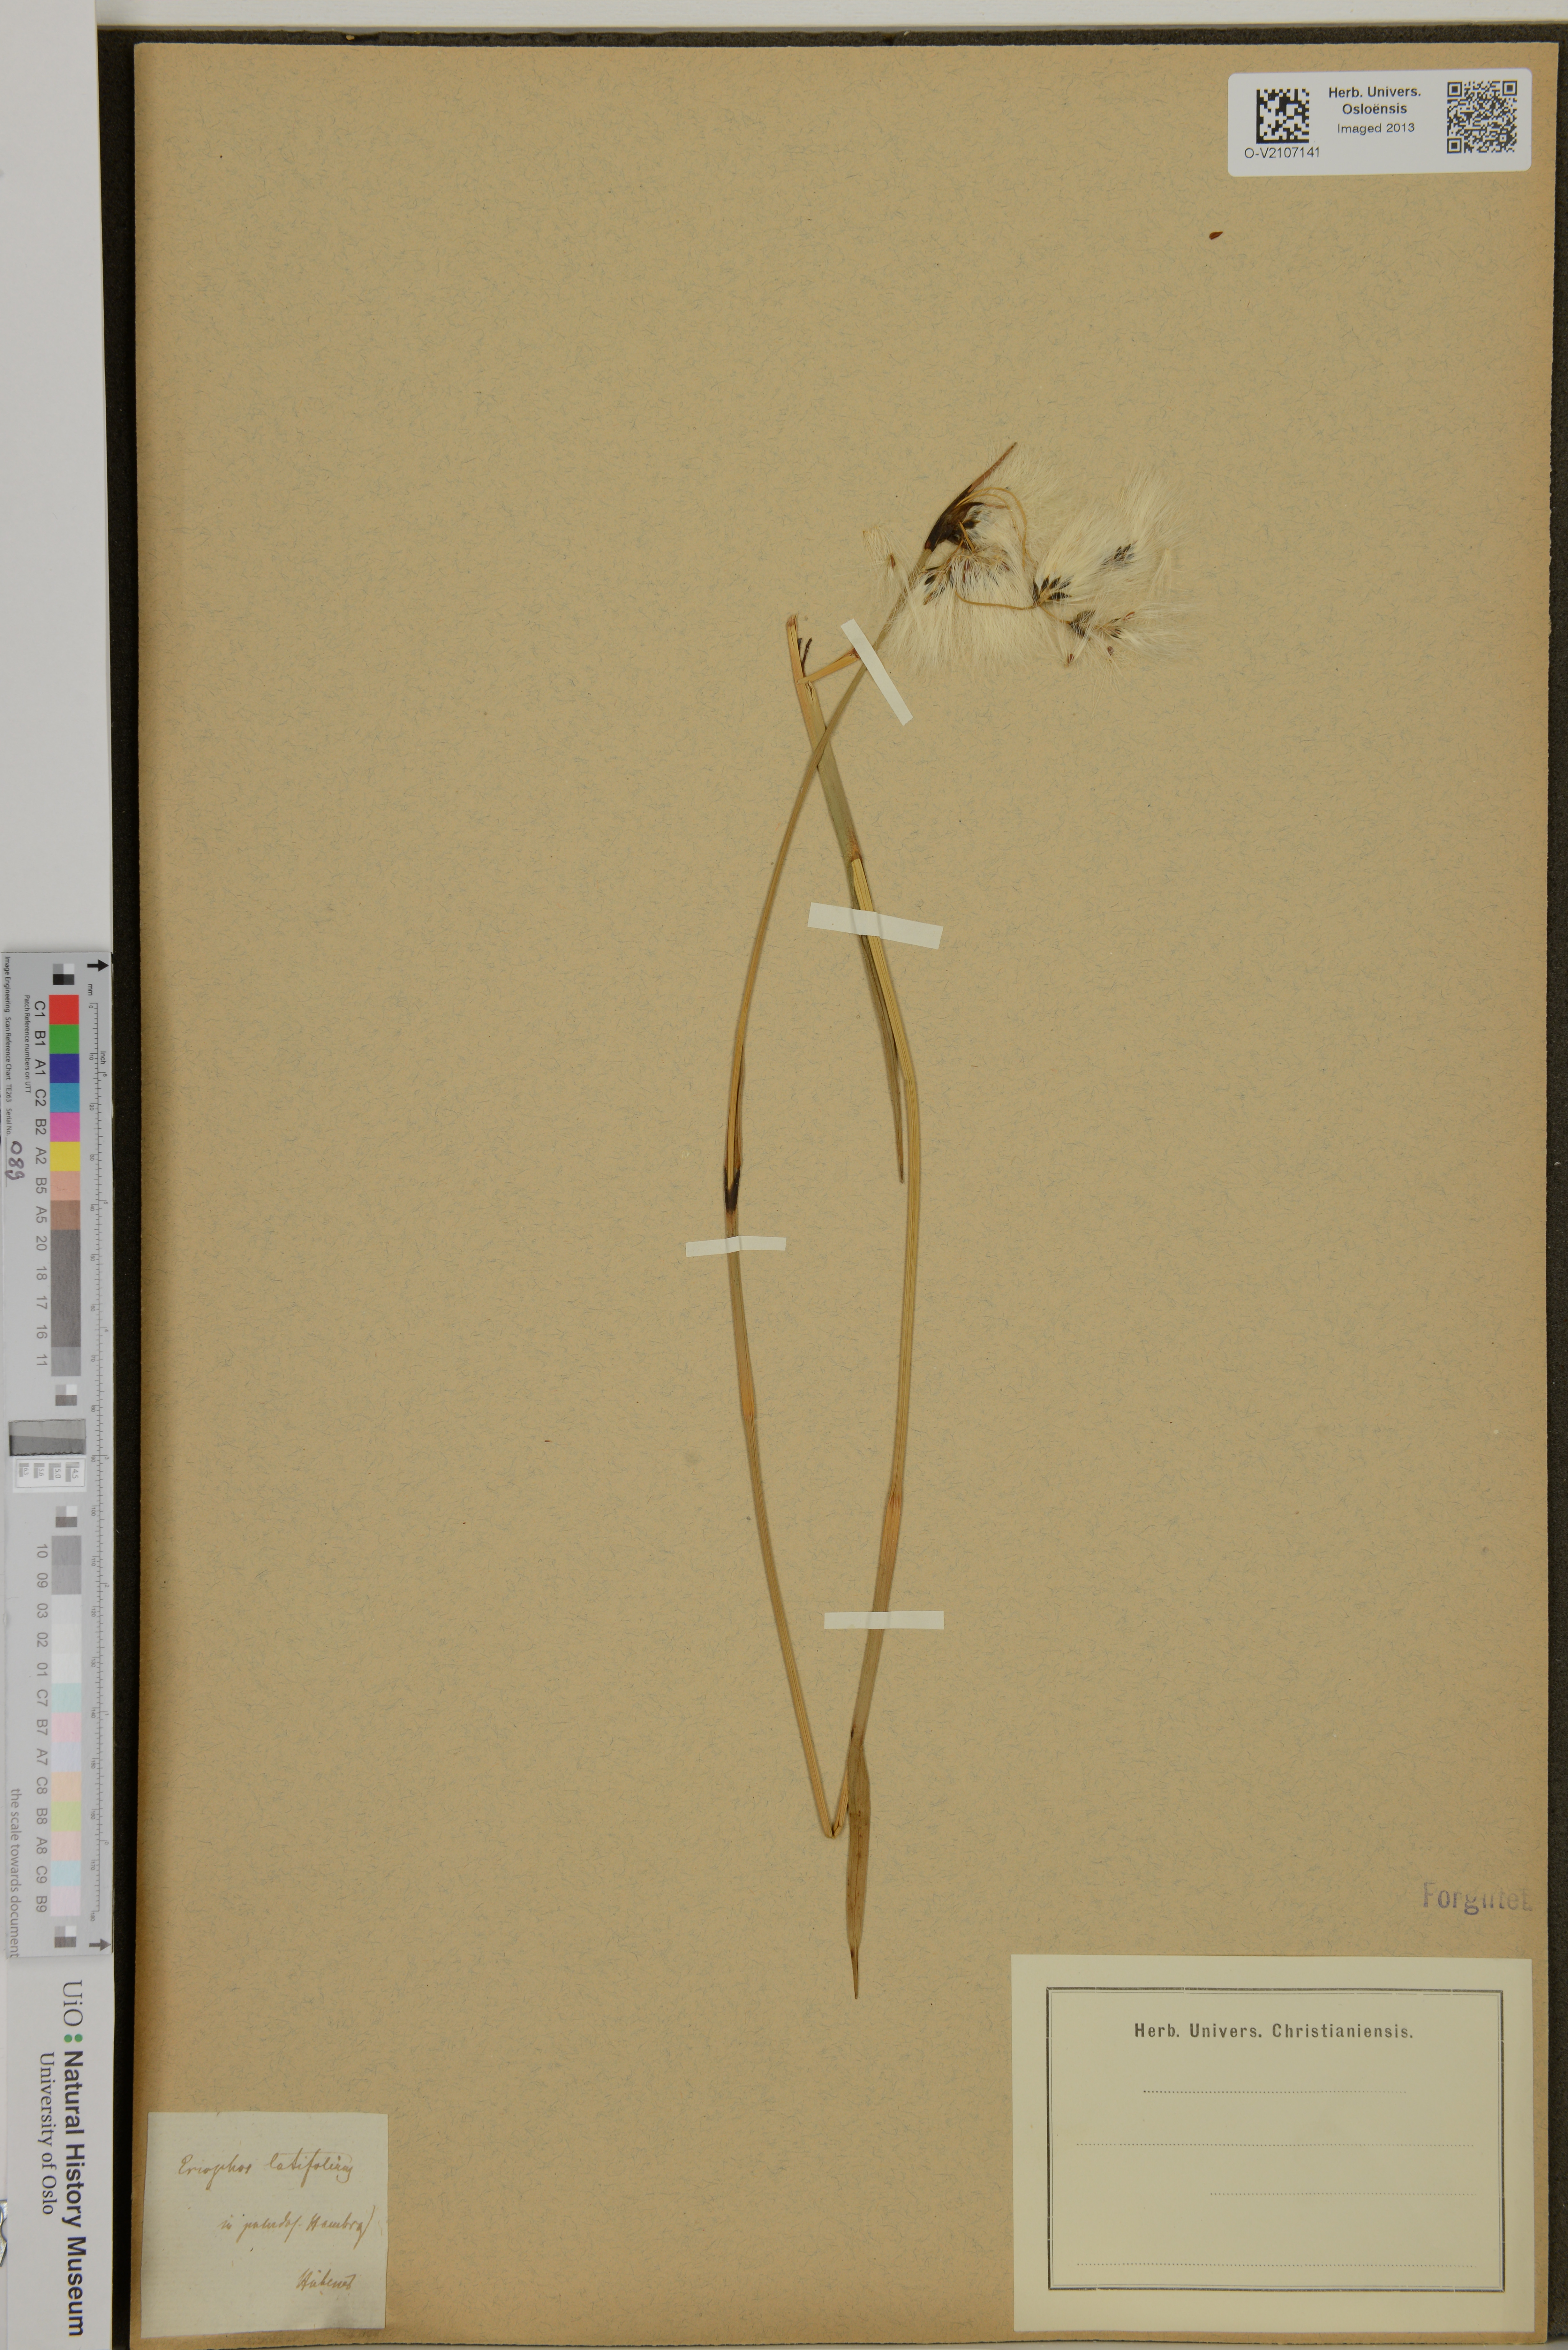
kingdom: Plantae
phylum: Tracheophyta
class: Liliopsida
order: Poales
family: Cyperaceae
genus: Eriophorum
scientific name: Eriophorum latifolium
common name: Broad-leaved cottongrass
